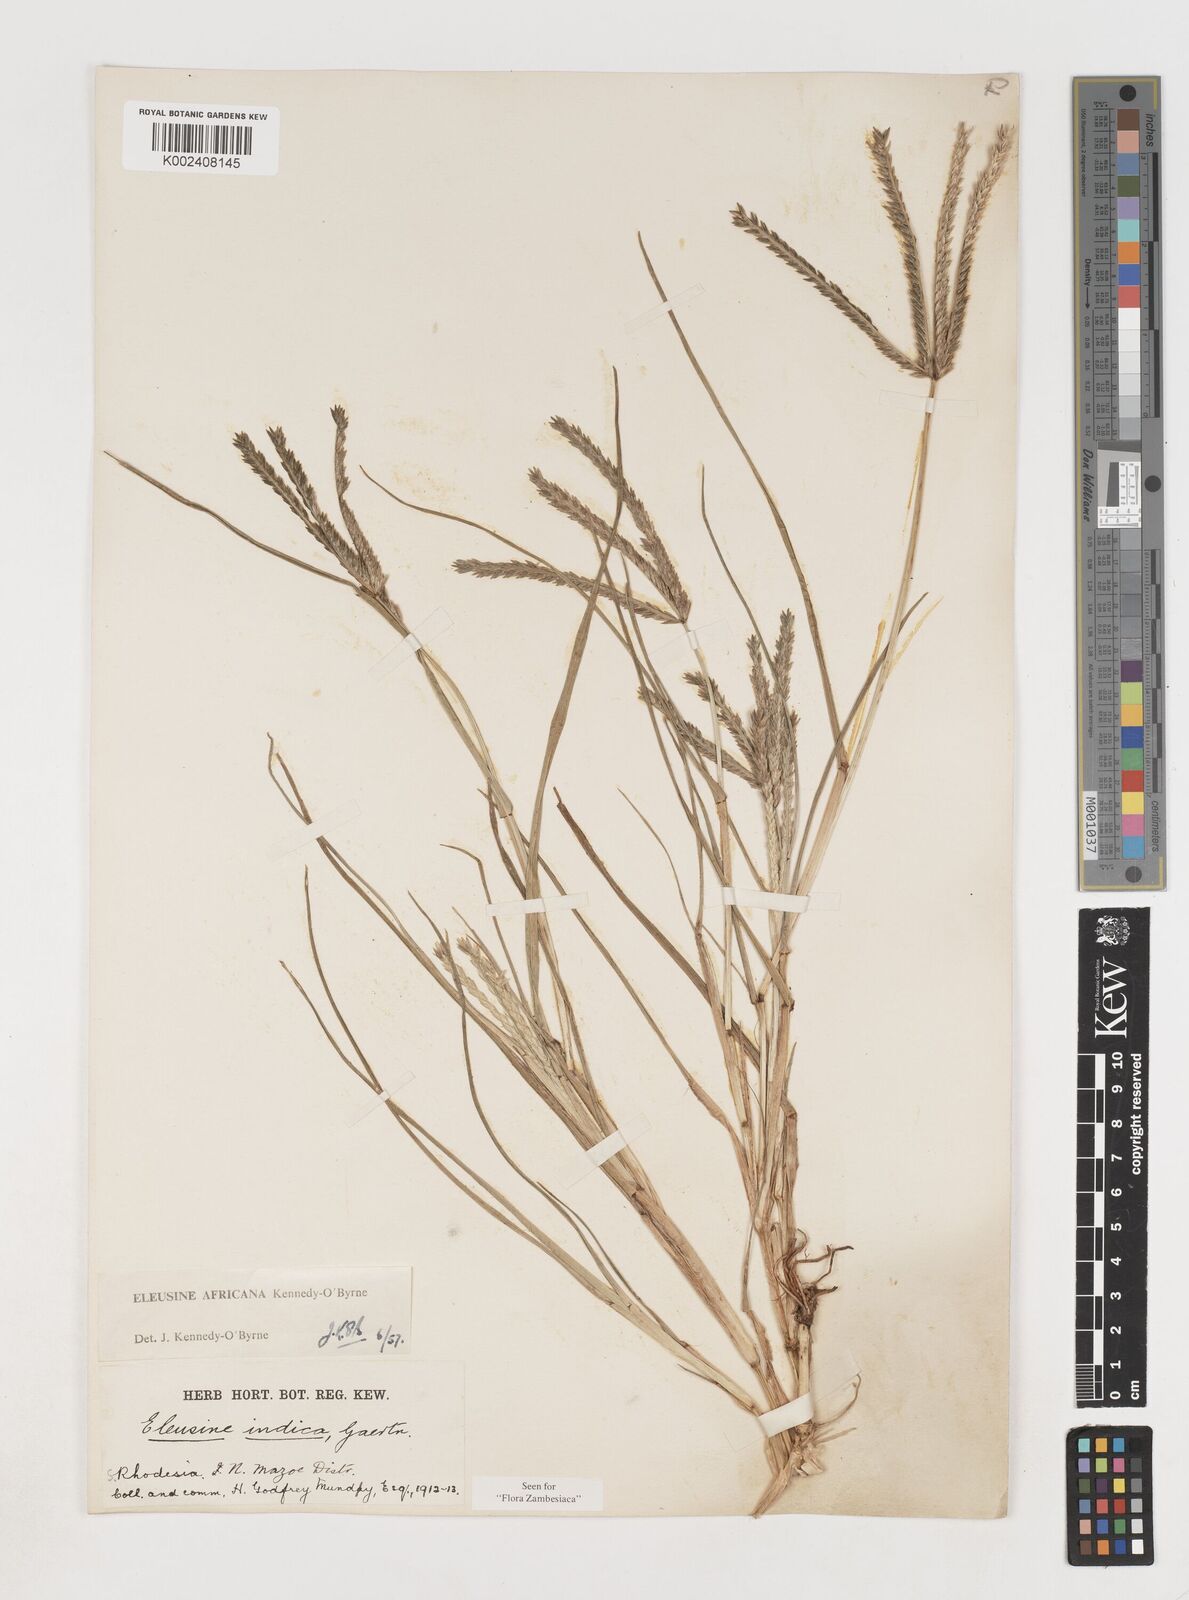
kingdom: Plantae
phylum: Tracheophyta
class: Liliopsida
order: Poales
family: Poaceae
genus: Eleusine
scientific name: Eleusine africana
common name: Wild african finger millet
